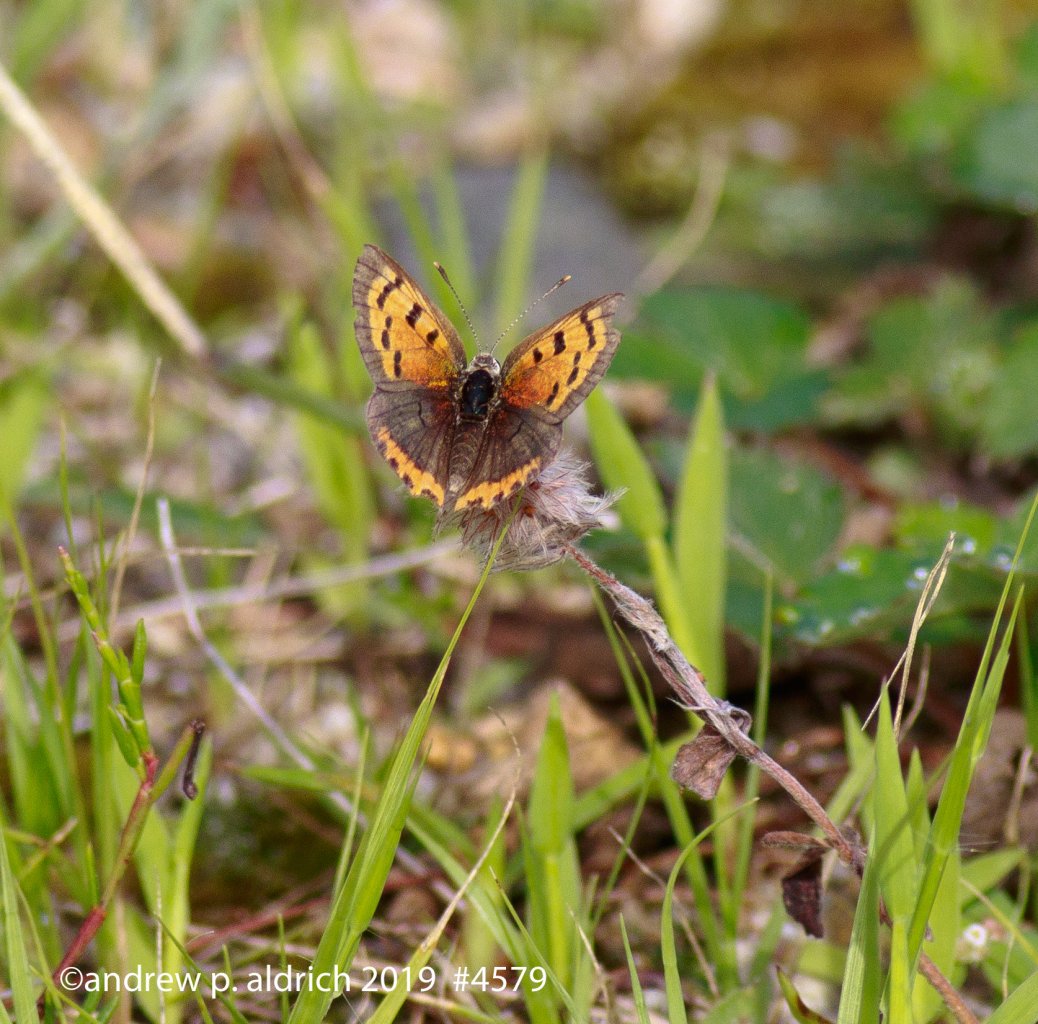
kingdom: Animalia
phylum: Arthropoda
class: Insecta
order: Lepidoptera
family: Lycaenidae
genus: Lycaena
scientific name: Lycaena phlaeas
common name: American Copper
